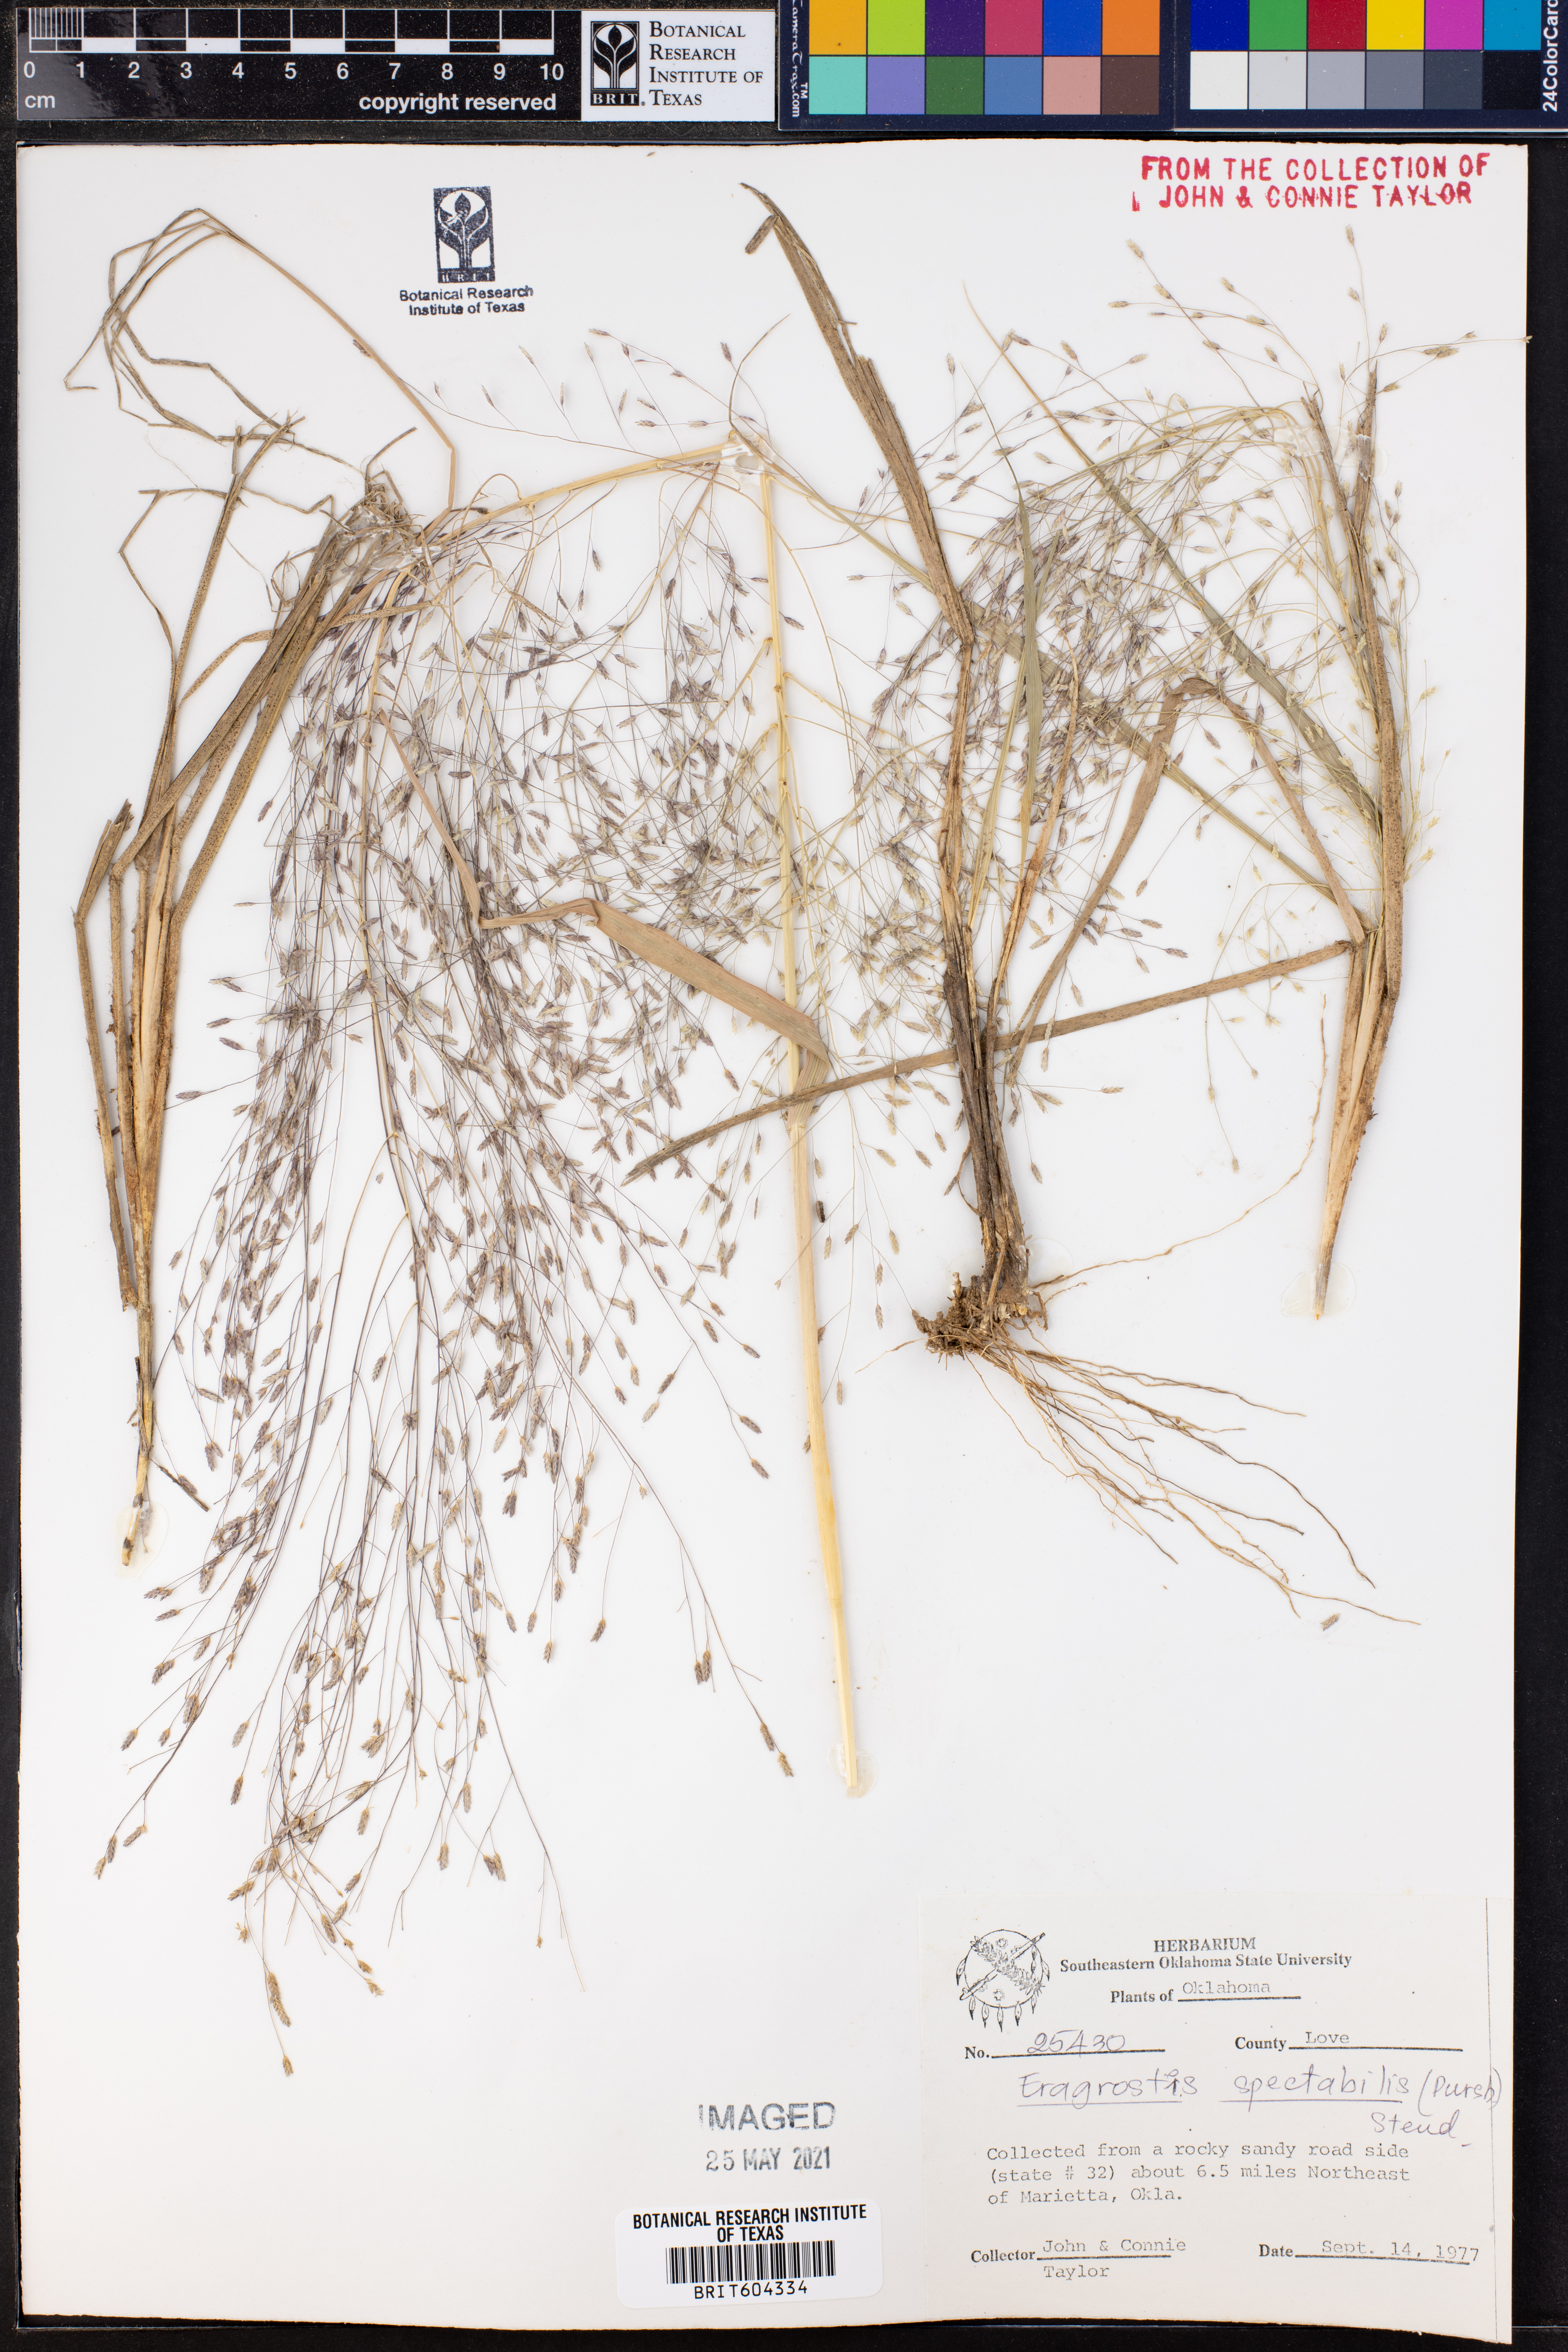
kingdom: Plantae
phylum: Tracheophyta
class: Liliopsida
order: Poales
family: Poaceae
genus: Eragrostis
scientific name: Eragrostis spectabilis
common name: Petticoat-climber
